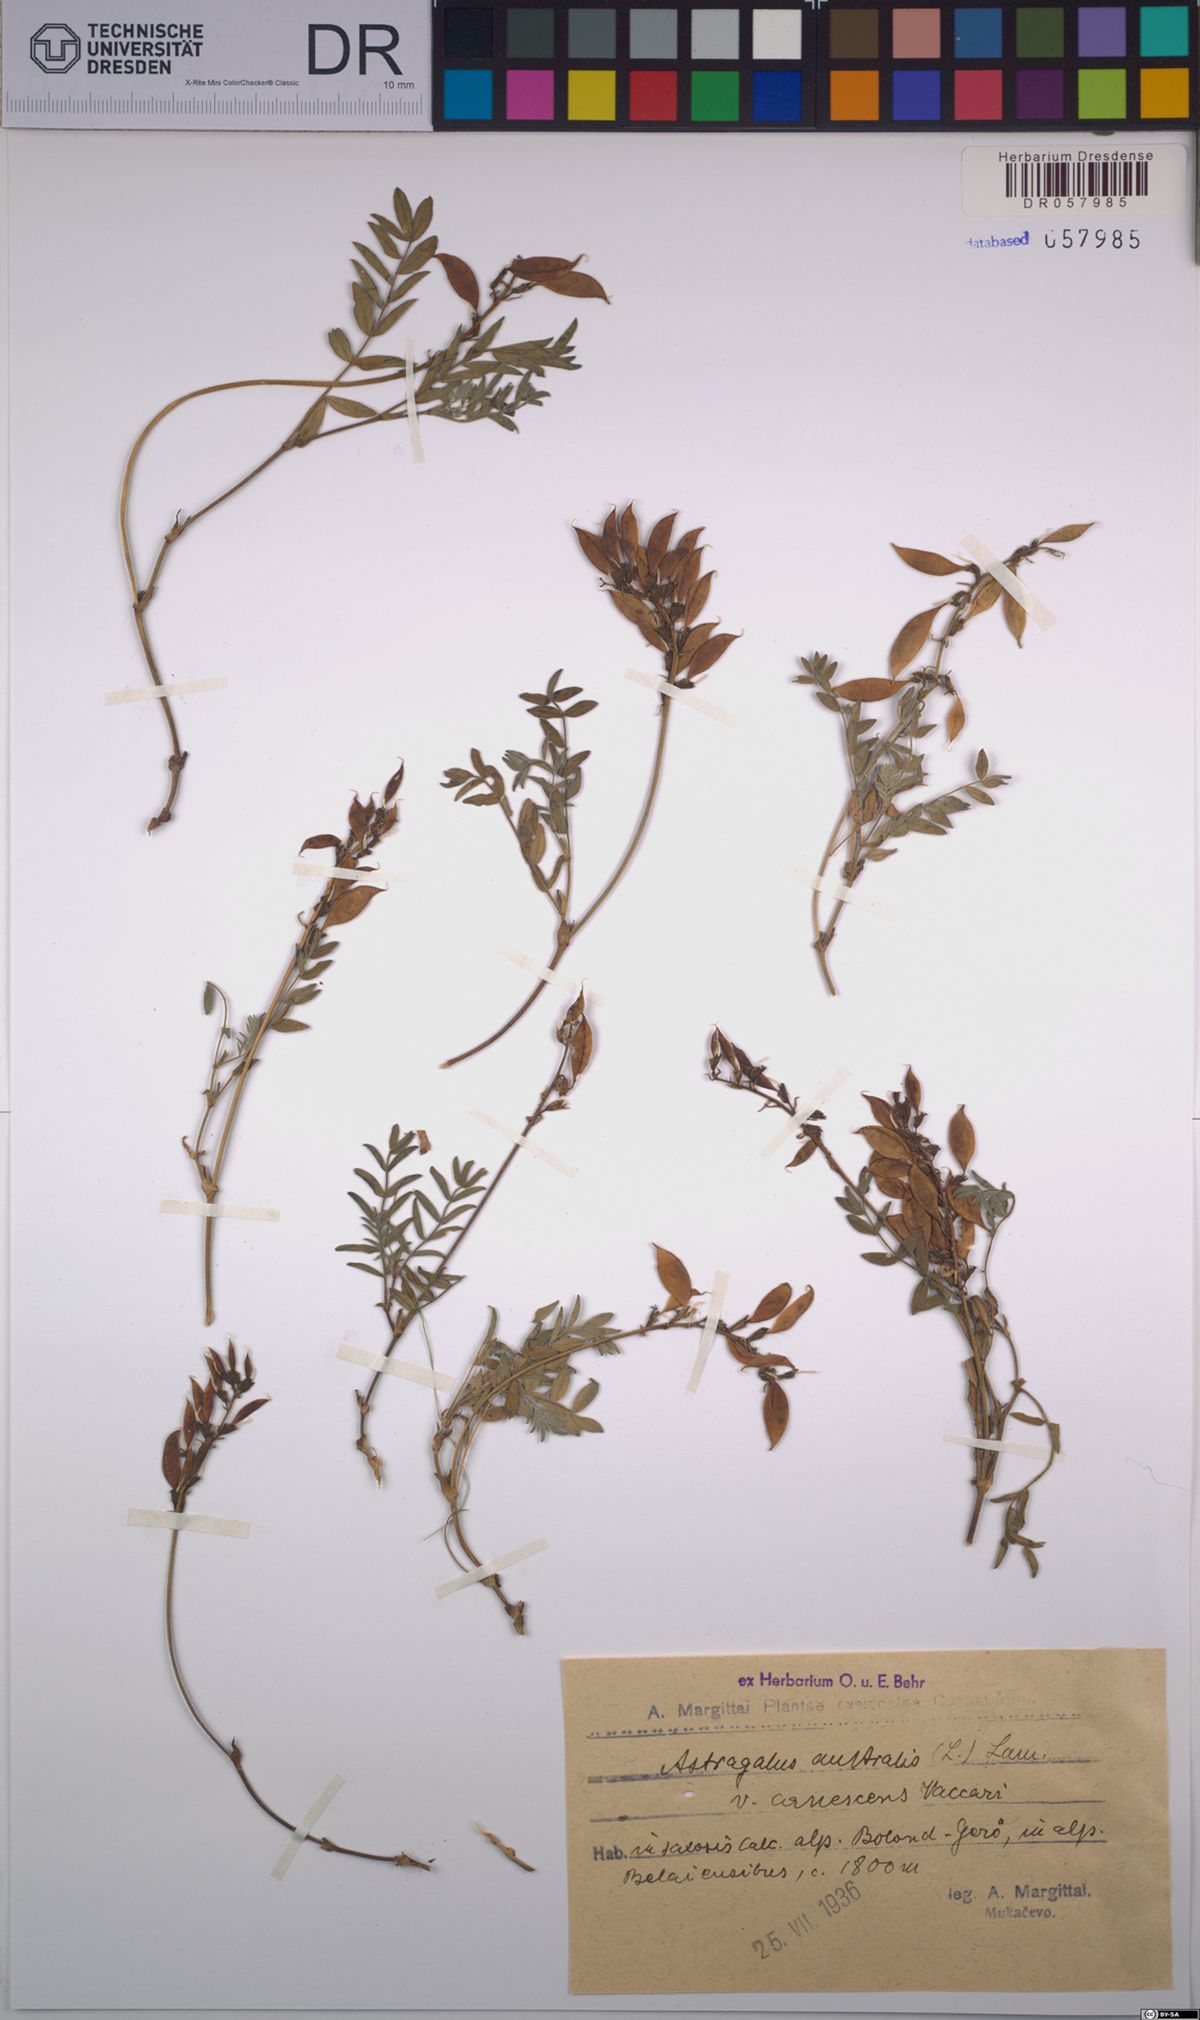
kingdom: Plantae
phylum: Tracheophyta
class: Magnoliopsida
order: Fabales
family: Fabaceae
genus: Astragalus
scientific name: Astragalus australis
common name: Indian milk-vetch
